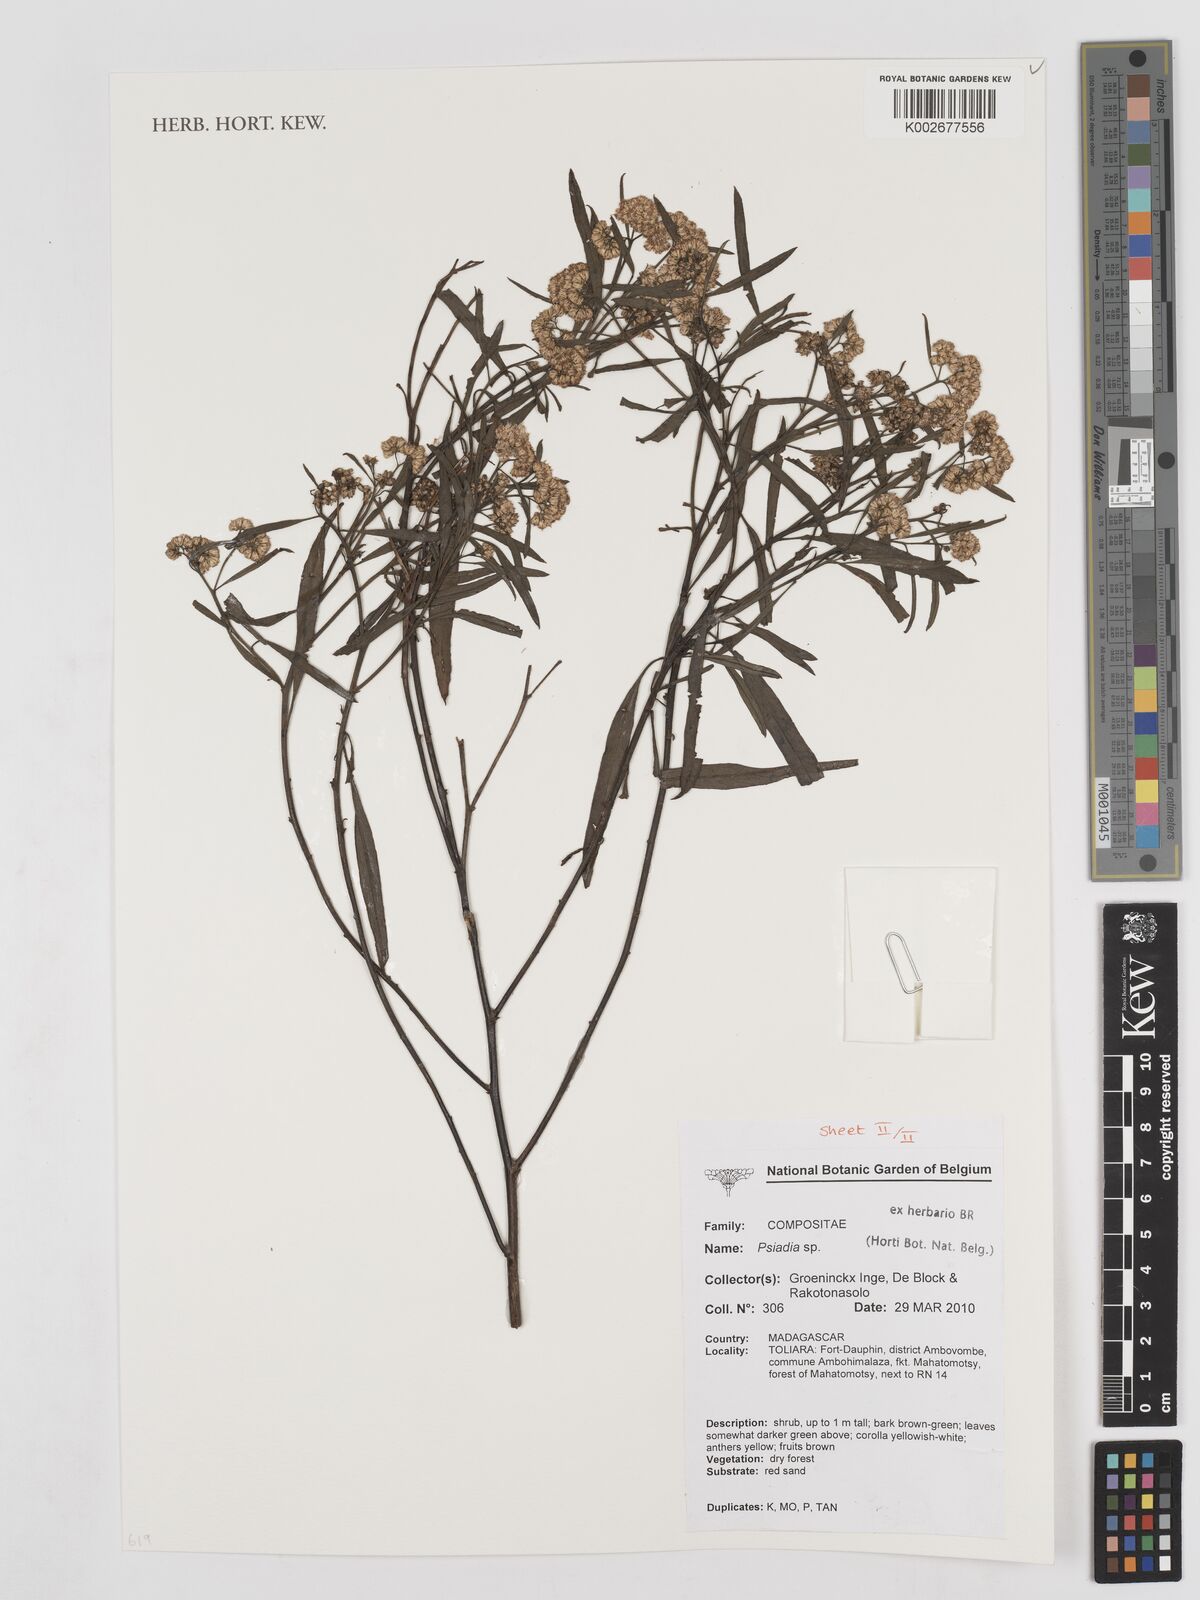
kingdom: Plantae
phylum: Tracheophyta
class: Magnoliopsida
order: Asterales
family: Asteraceae
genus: Psiadia
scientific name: Psiadia
